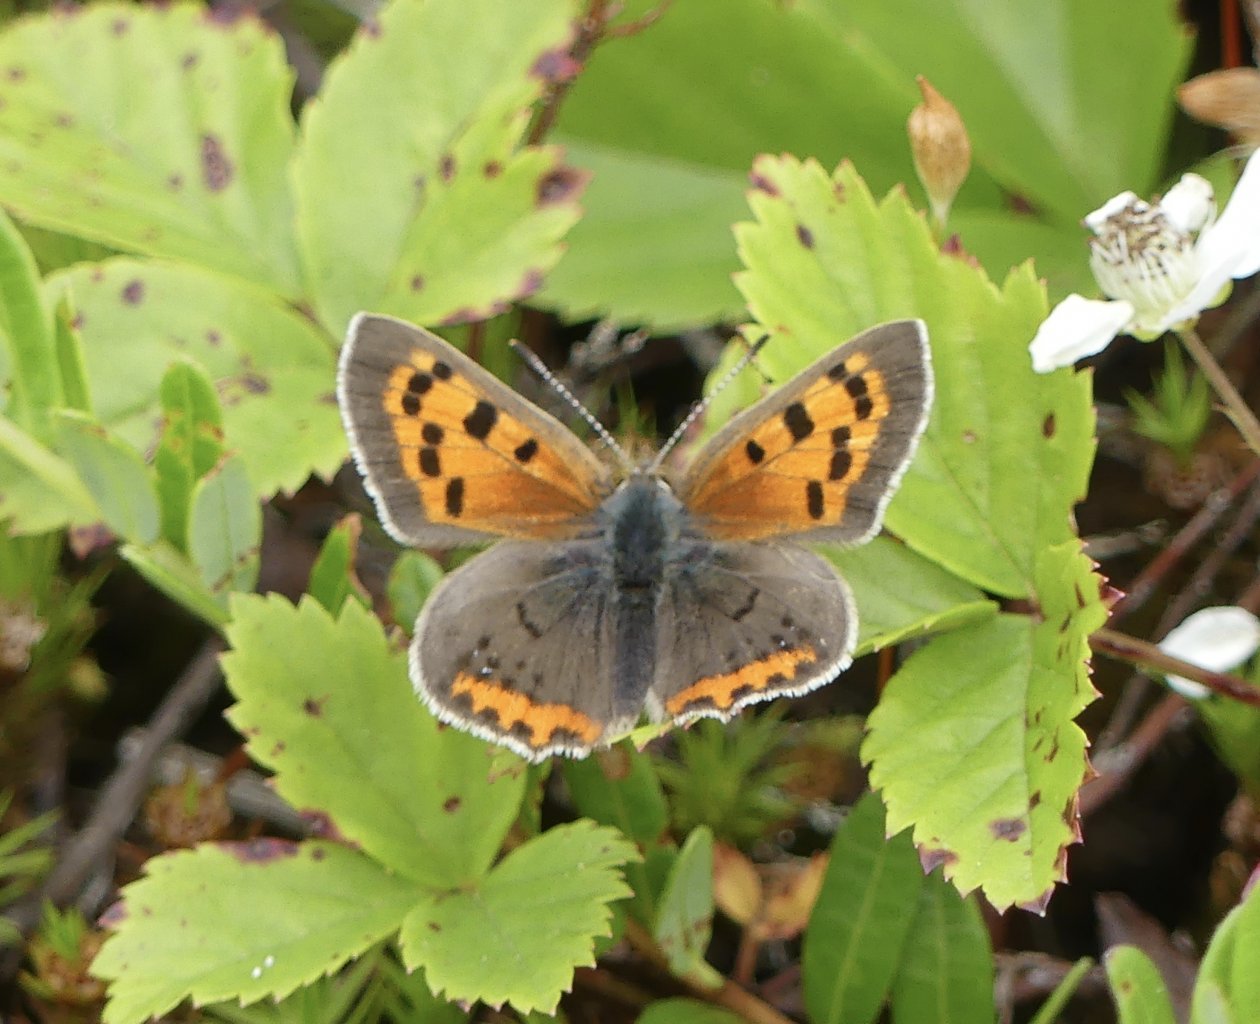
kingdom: Animalia
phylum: Arthropoda
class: Insecta
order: Lepidoptera
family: Lycaenidae
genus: Lycaena
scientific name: Lycaena phlaeas
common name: American Copper
